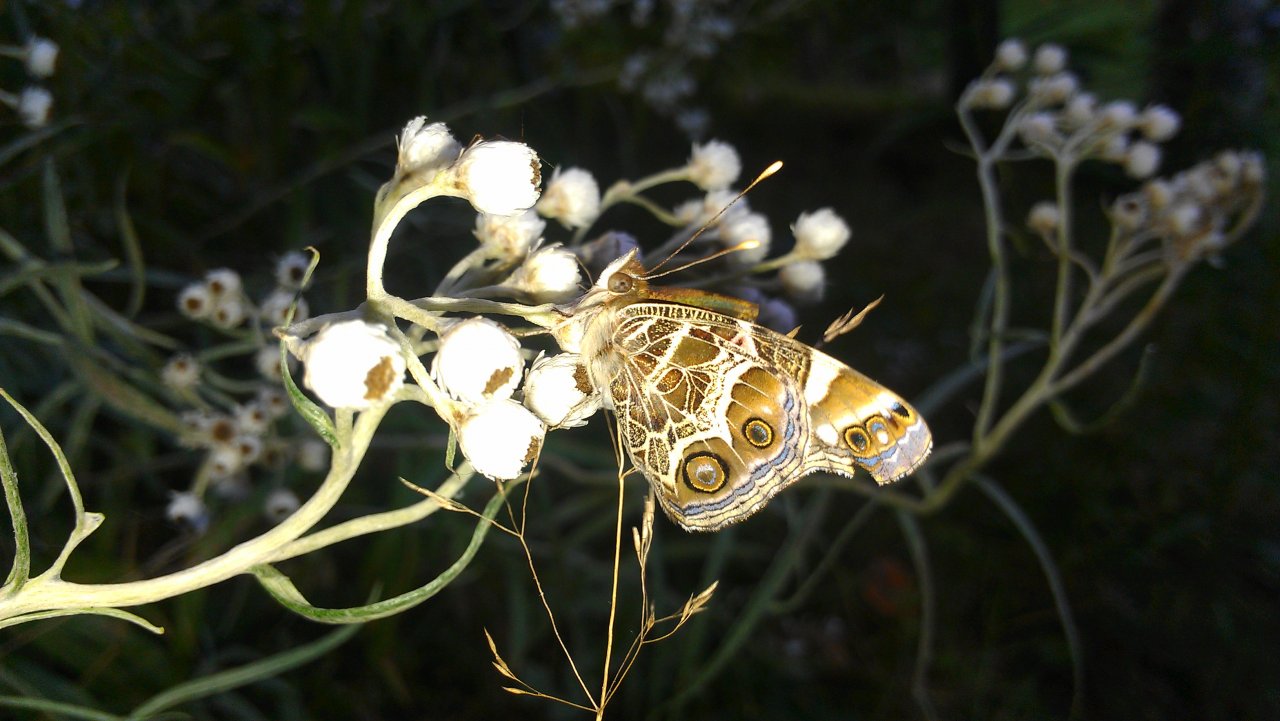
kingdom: Animalia
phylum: Arthropoda
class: Insecta
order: Lepidoptera
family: Nymphalidae
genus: Vanessa
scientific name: Vanessa virginiensis
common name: American Lady
